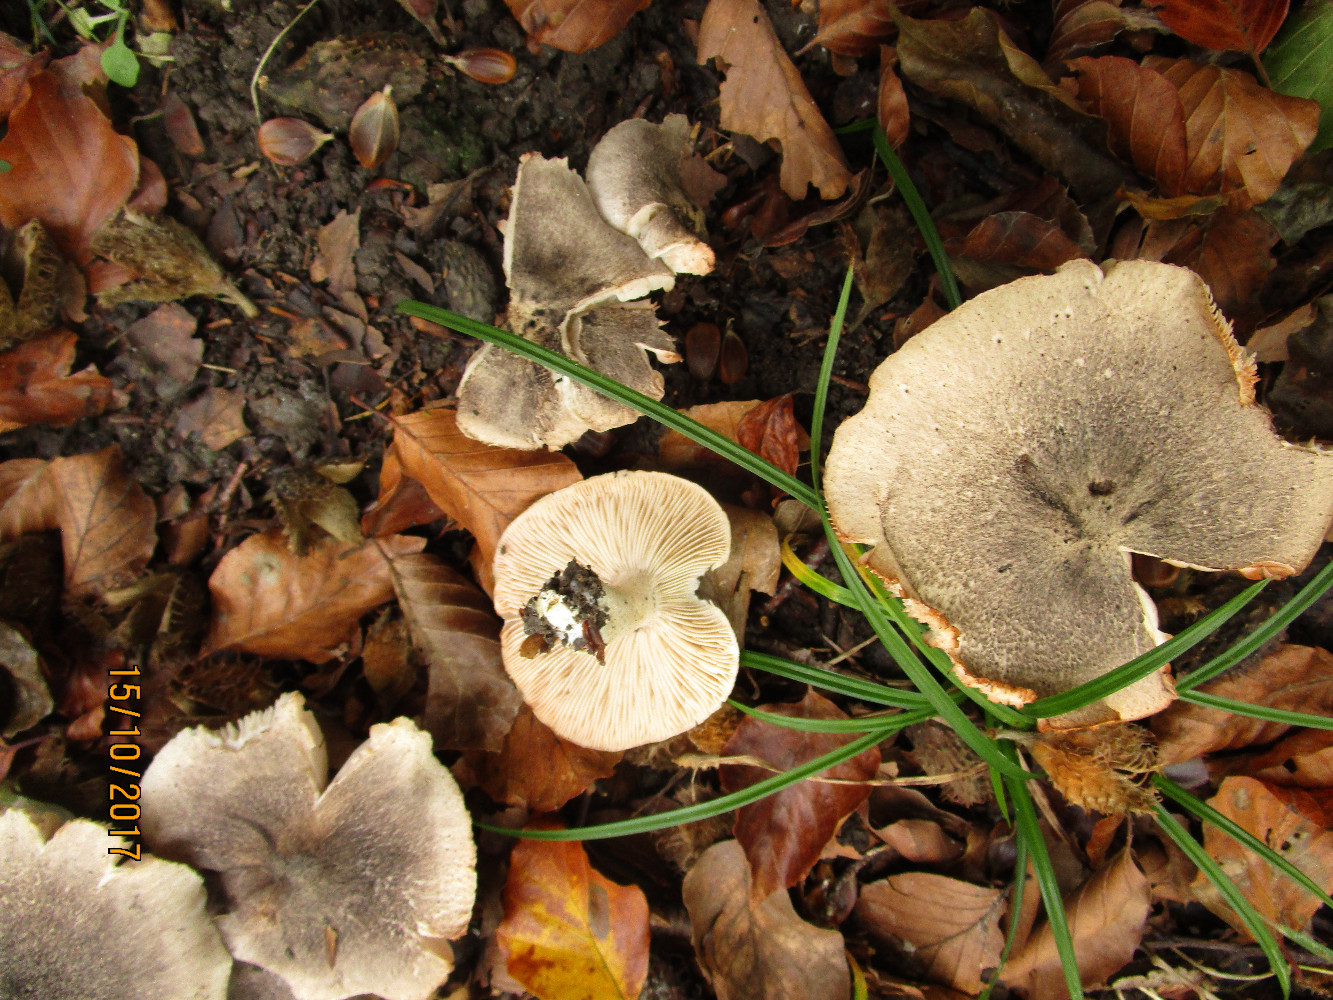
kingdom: Fungi
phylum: Basidiomycota
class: Agaricomycetes
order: Agaricales
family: Tricholomataceae
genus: Tricholoma
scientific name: Tricholoma orirubens
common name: rødbladet ridderhat
